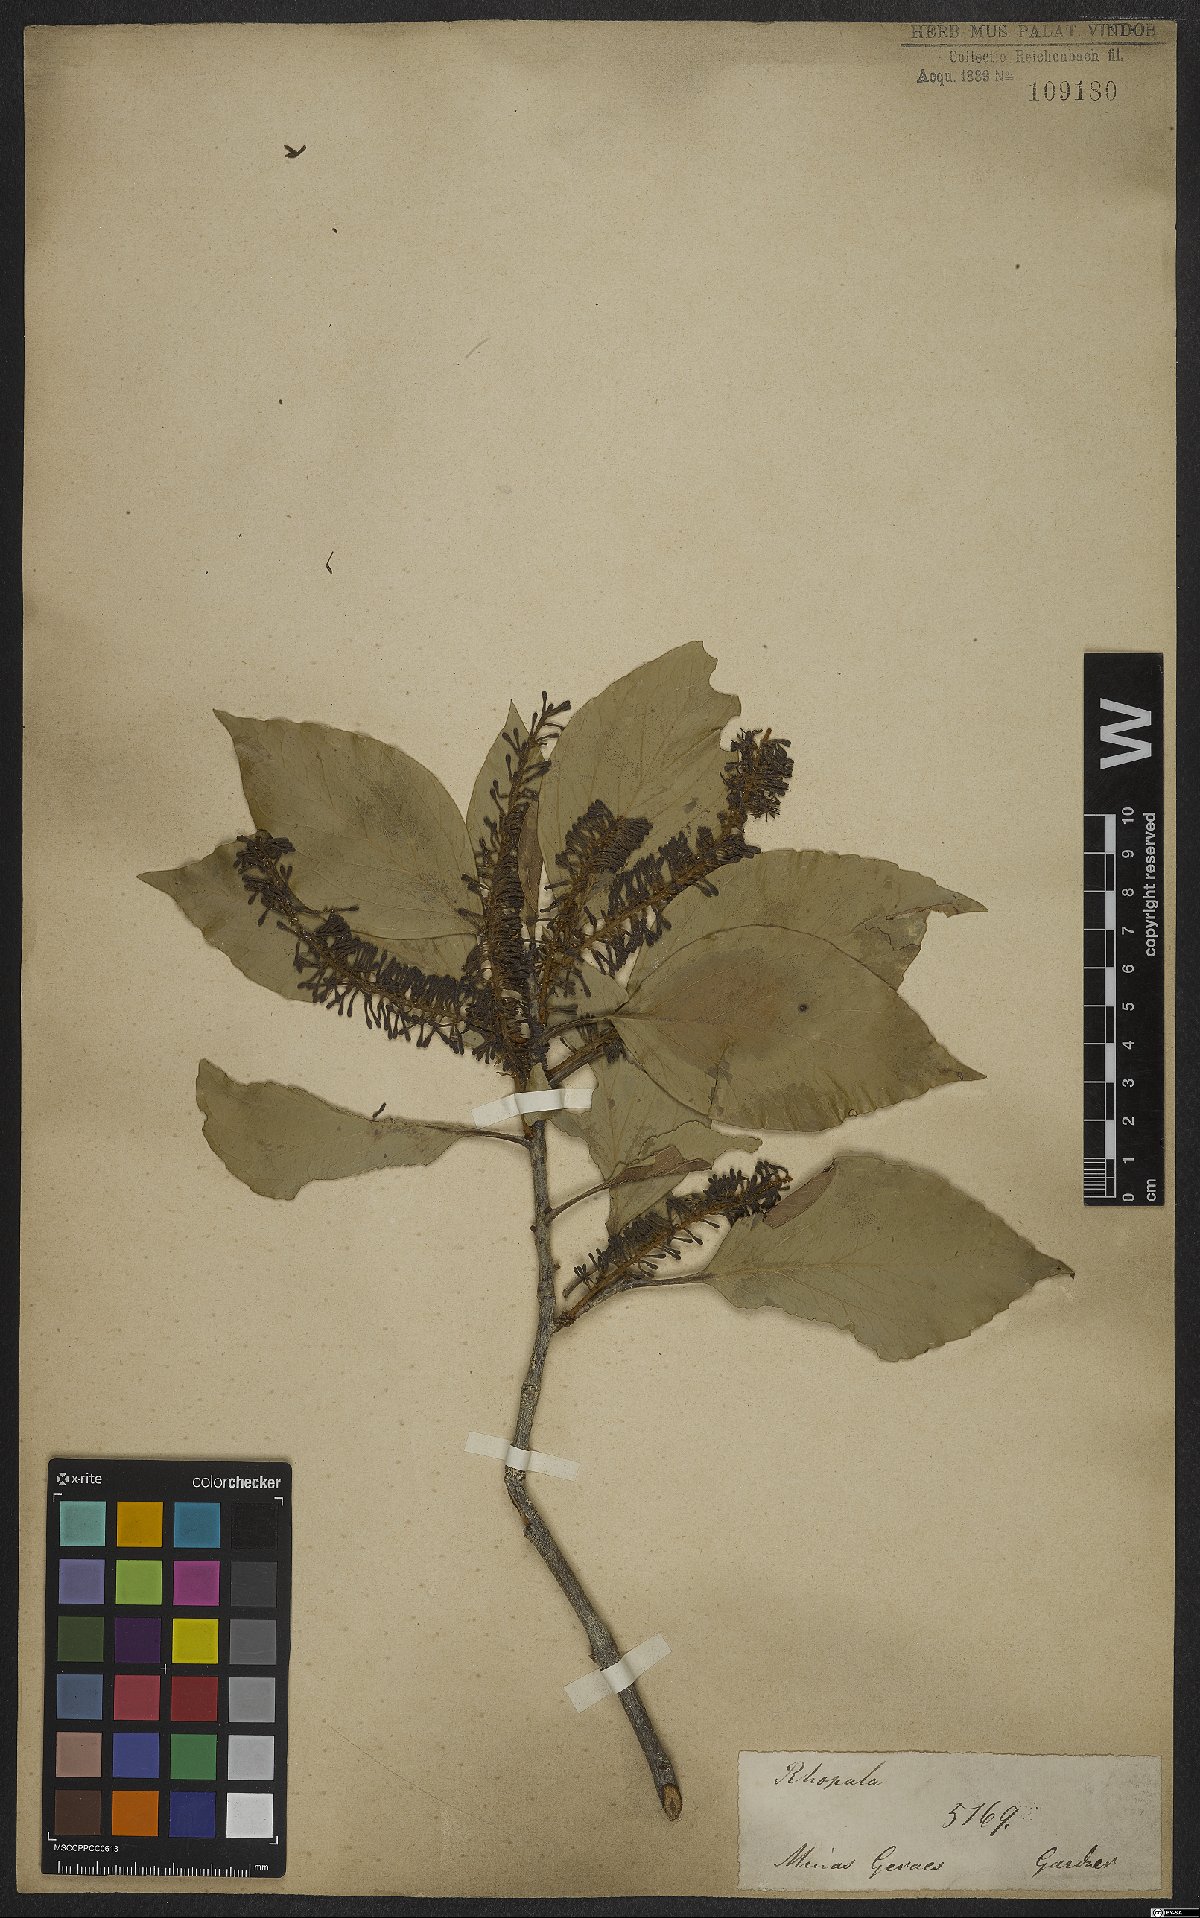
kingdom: Plantae
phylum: Tracheophyta
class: Magnoliopsida
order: Proteales
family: Proteaceae
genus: Roupala
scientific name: Roupala montana
